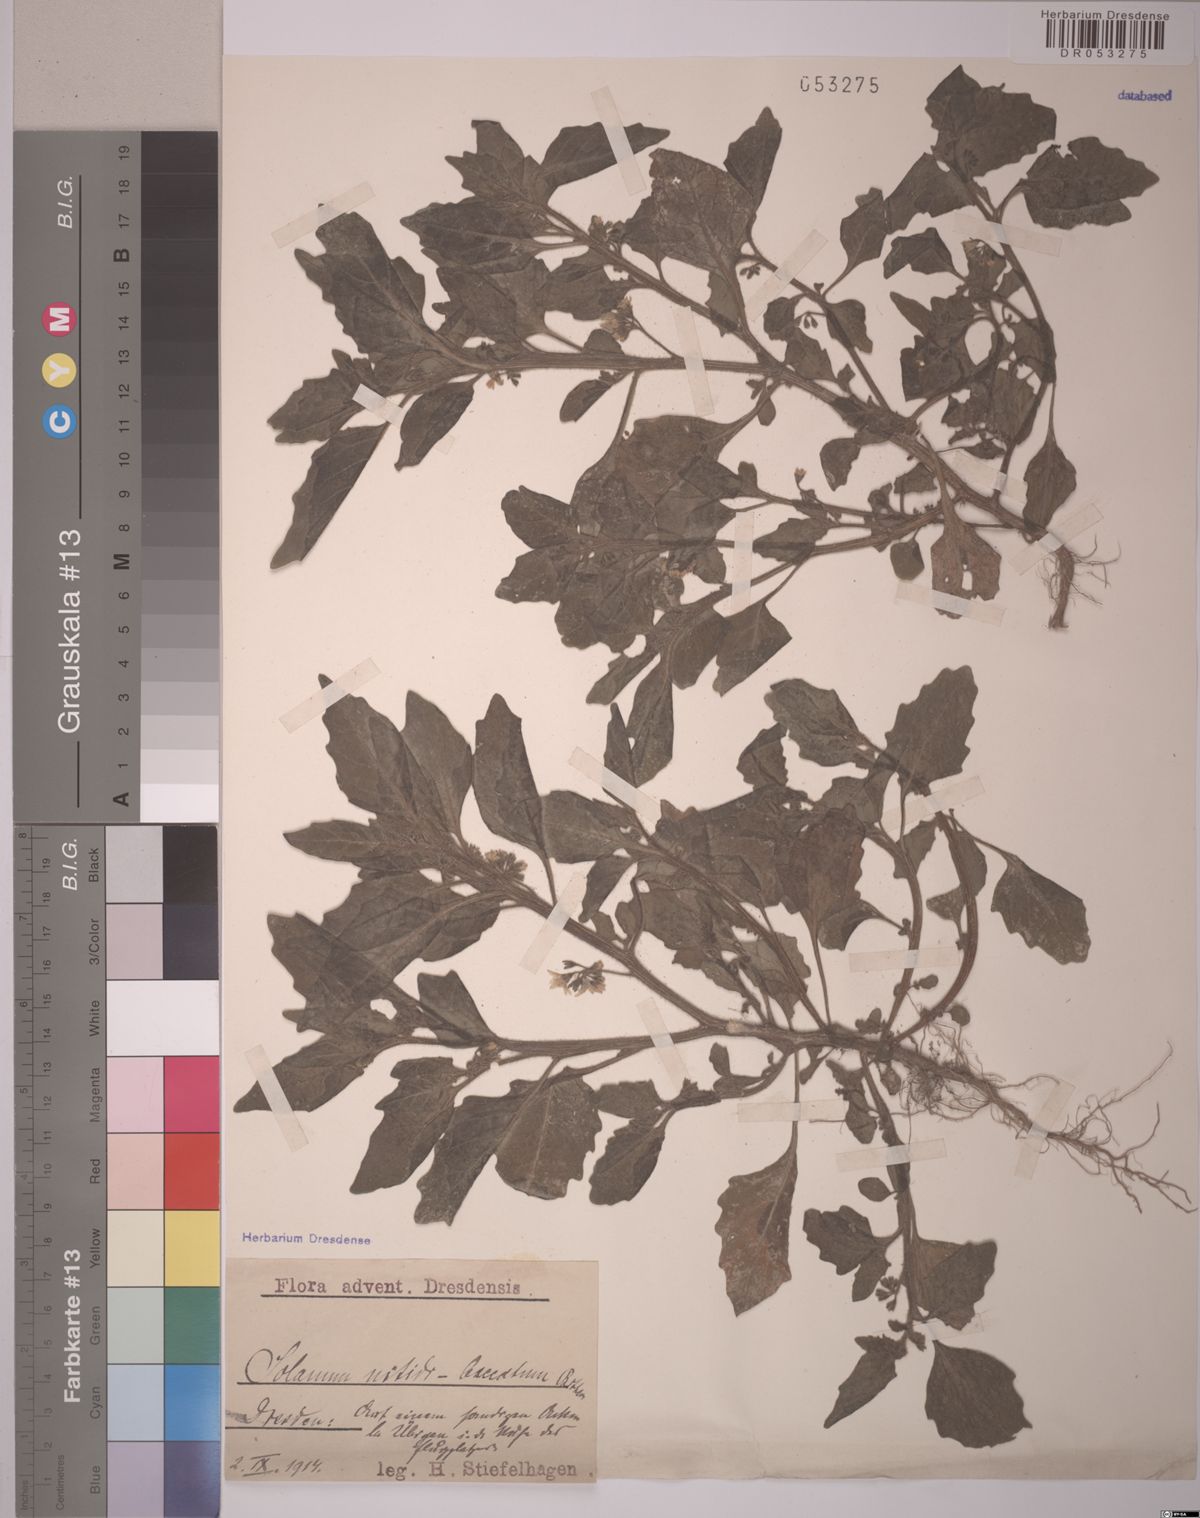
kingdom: Plantae
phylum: Tracheophyta
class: Magnoliopsida
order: Solanales
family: Solanaceae
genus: Solanum
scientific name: Solanum nitidibaccatum
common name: Hairy nightshade
